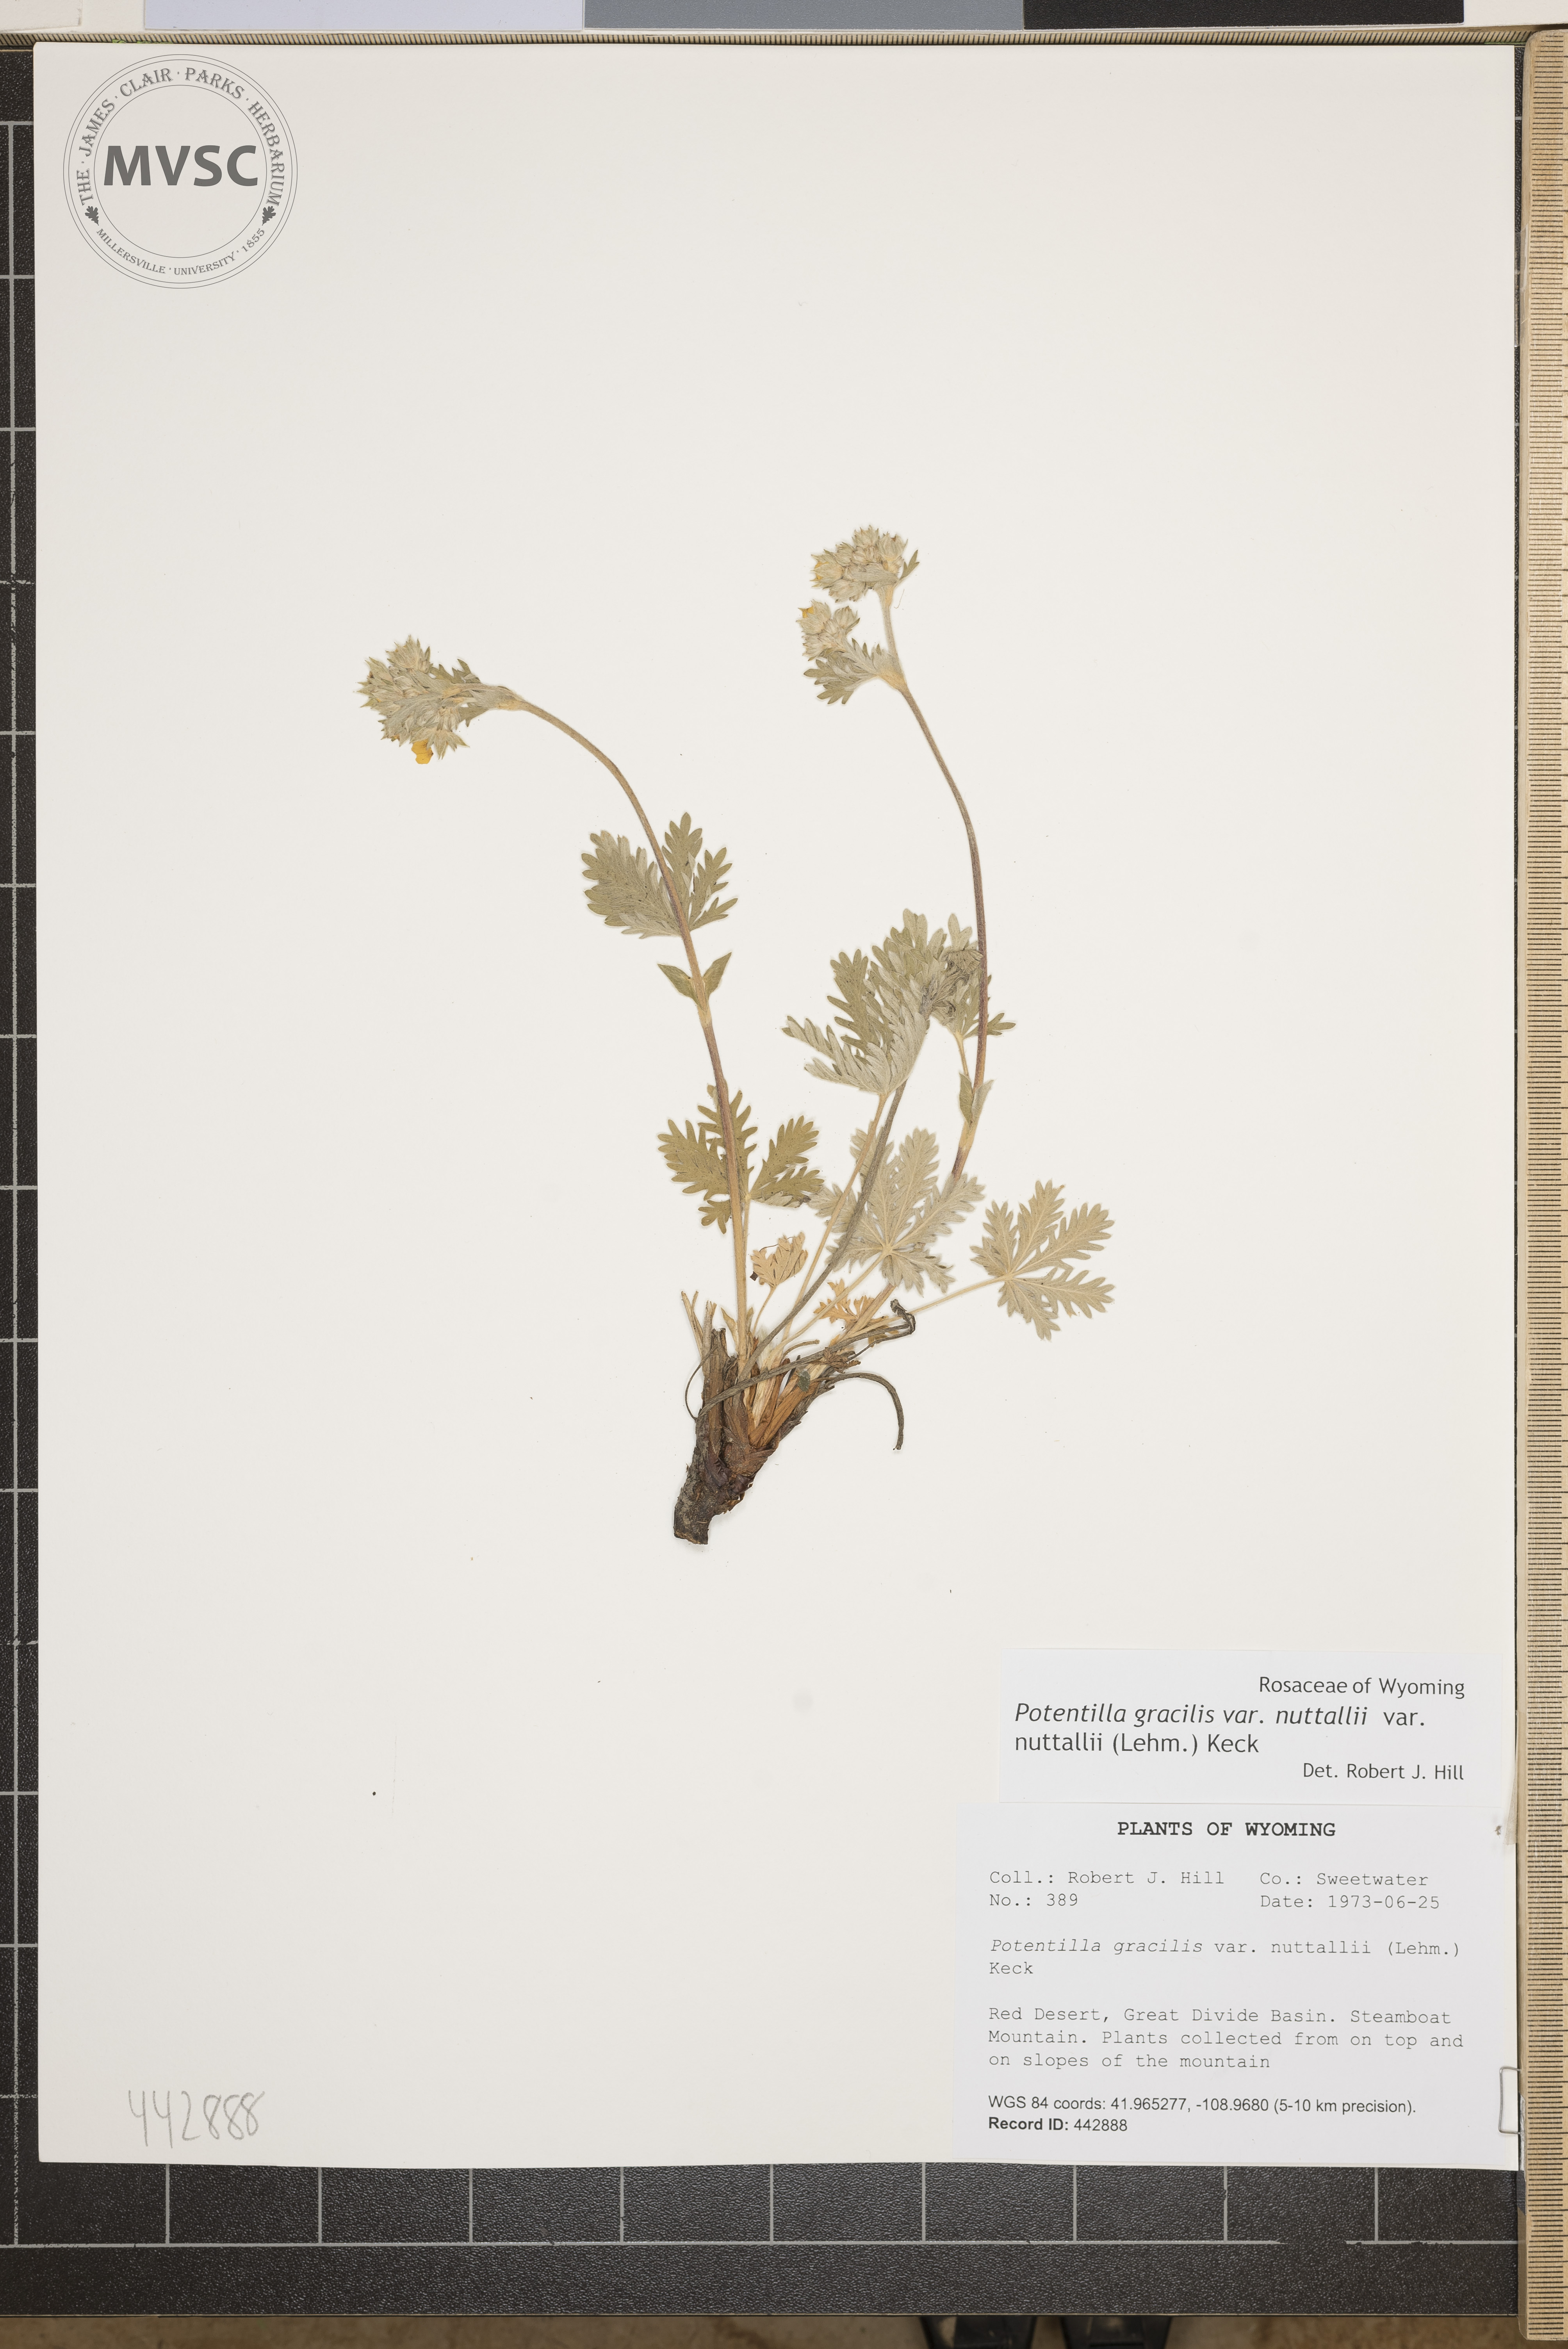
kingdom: Plantae
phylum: Tracheophyta
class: Magnoliopsida
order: Rosales
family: Rosaceae
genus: Potentilla
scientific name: Potentilla gracilis
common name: Graceful cinquefoil
